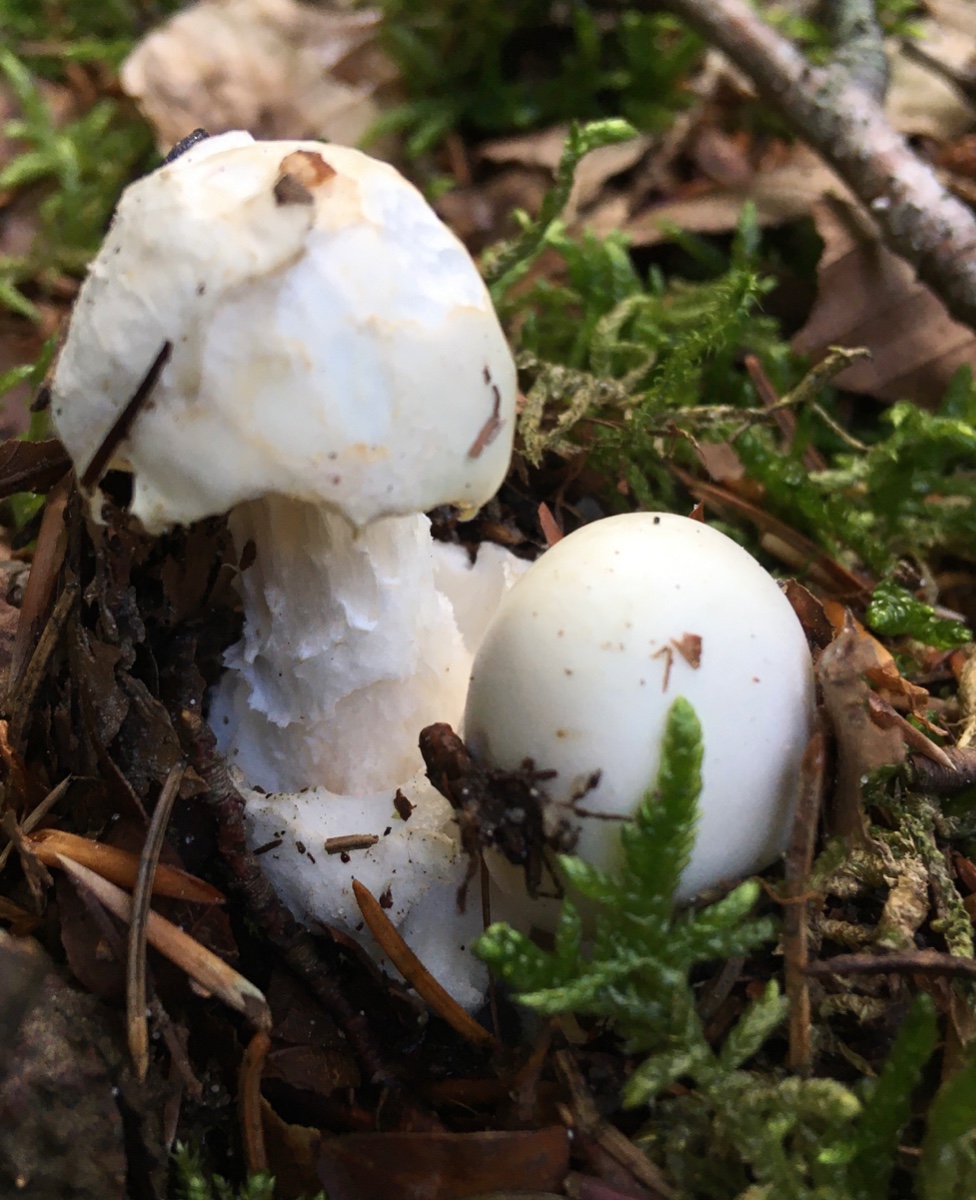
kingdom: Fungi
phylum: Basidiomycota
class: Agaricomycetes
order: Agaricales
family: Amanitaceae
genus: Amanita
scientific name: Amanita virosa
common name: snehvid fluesvamp
